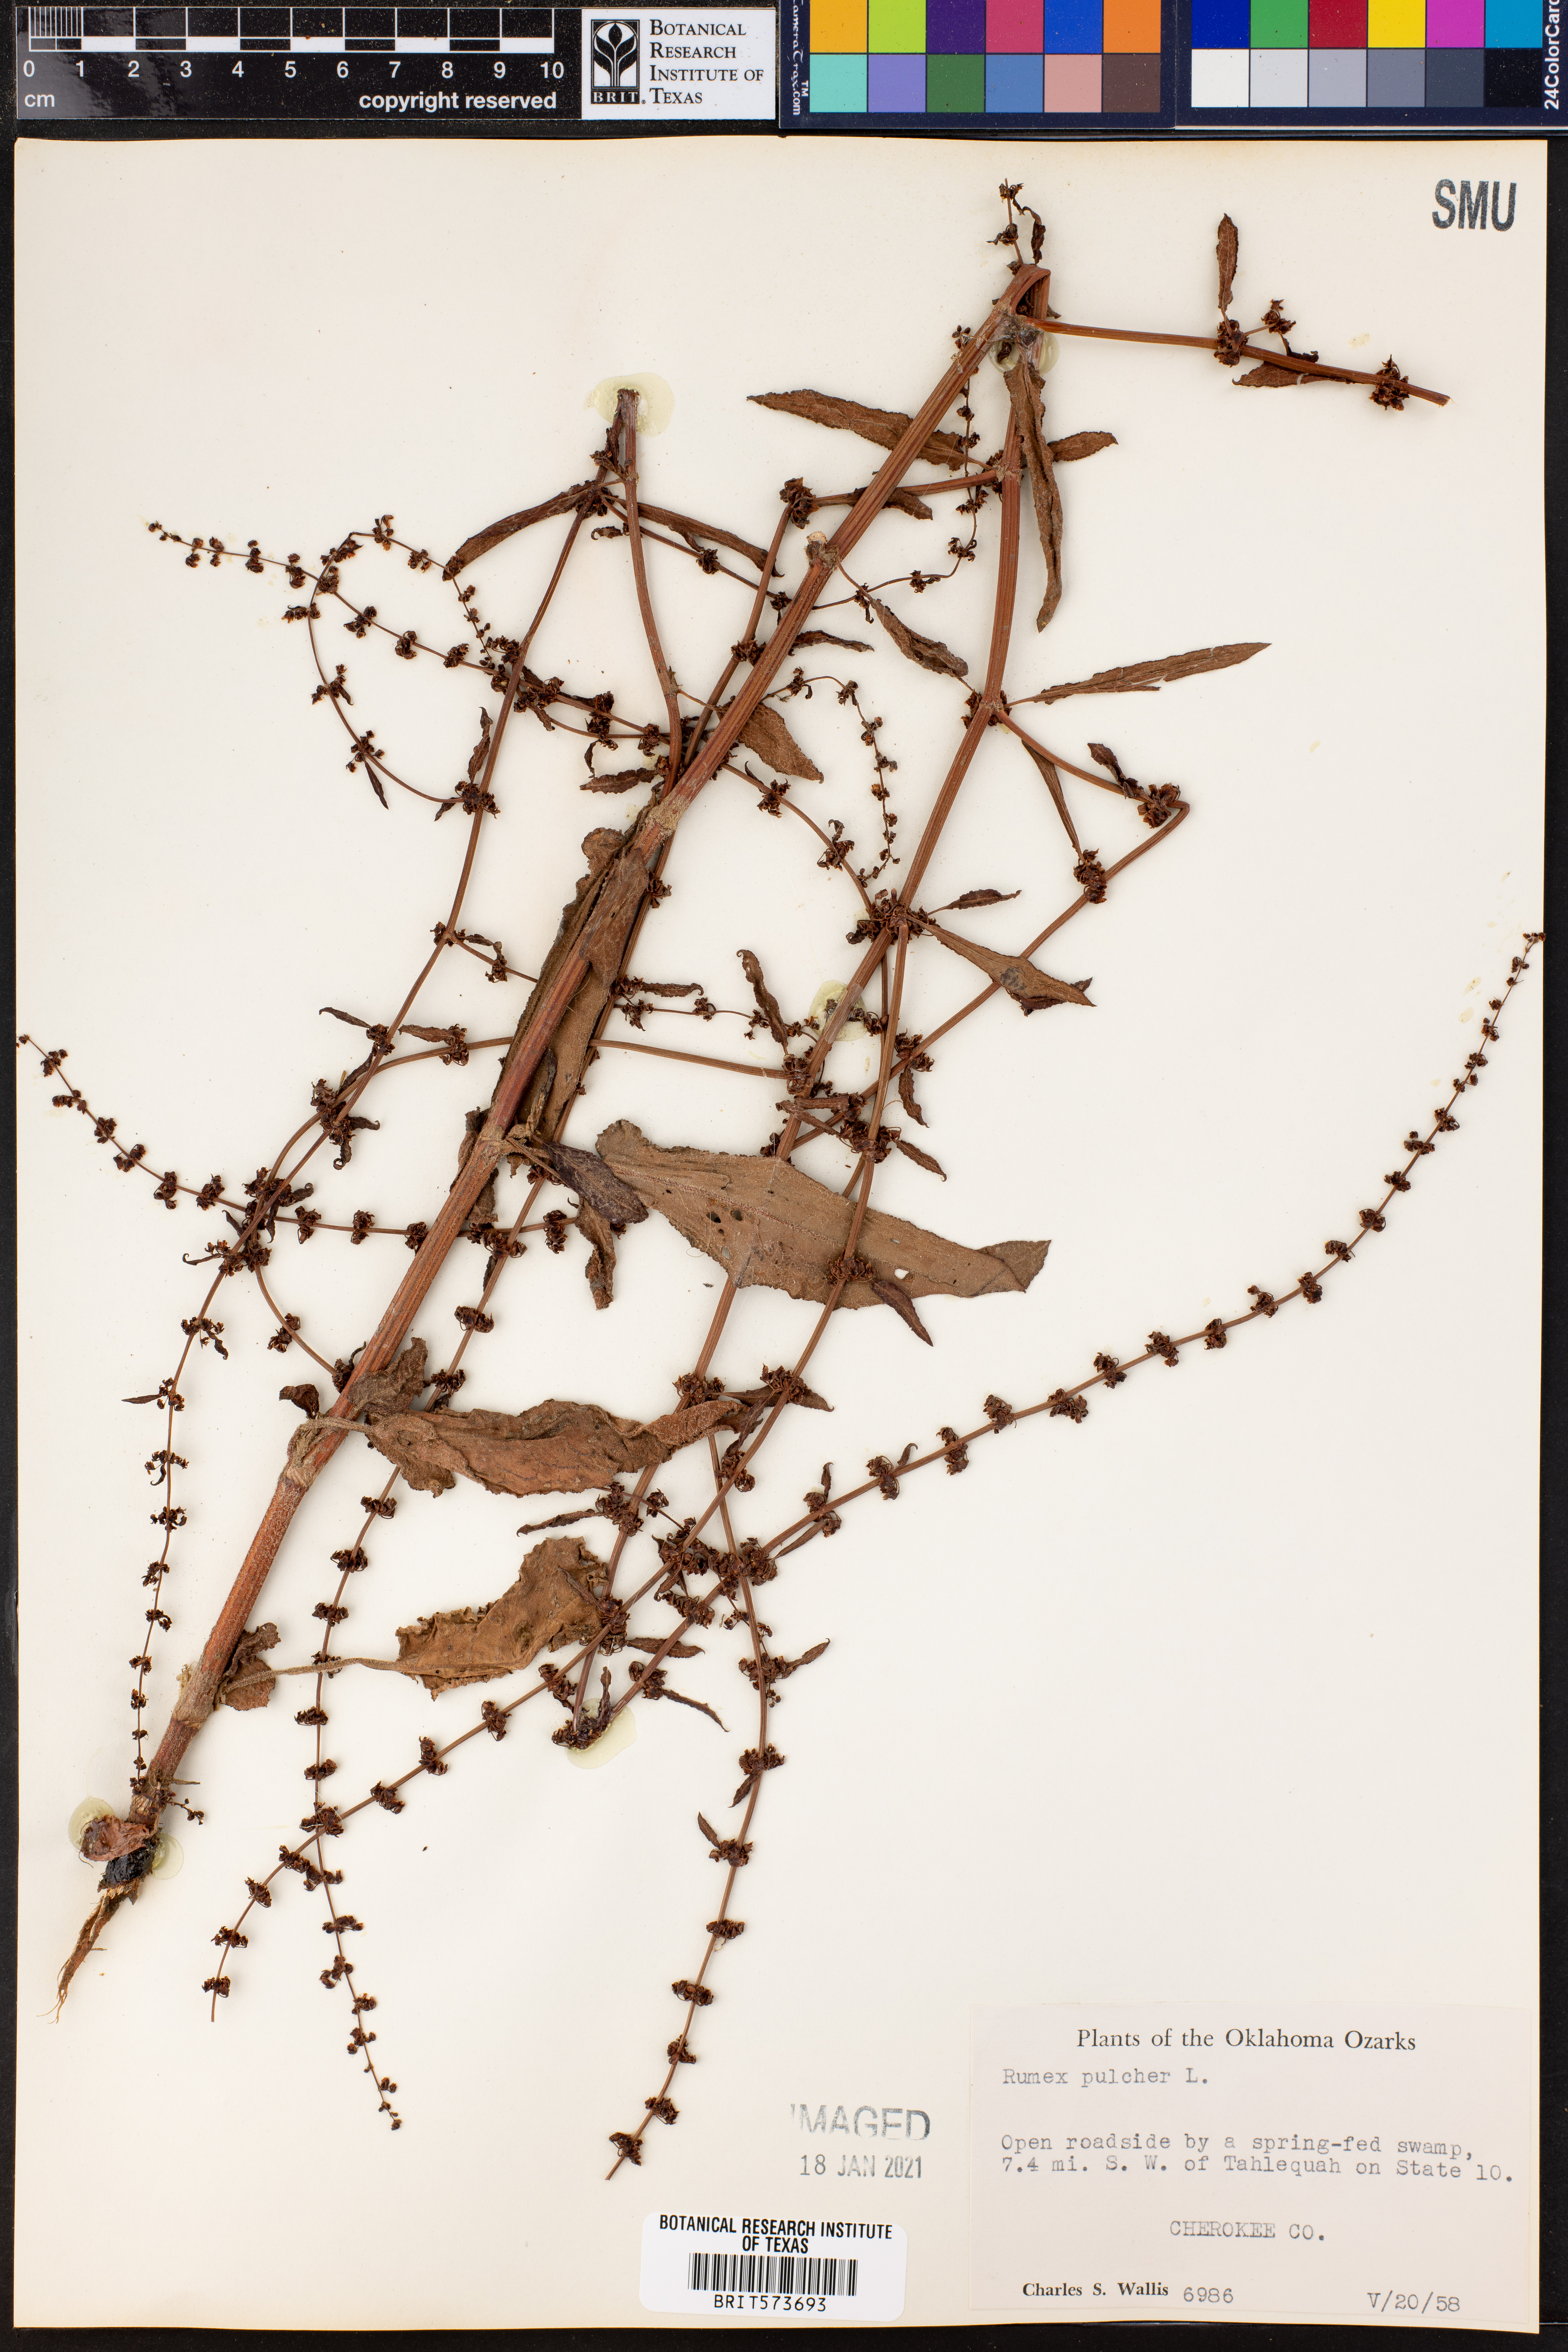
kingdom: Plantae
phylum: Tracheophyta
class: Magnoliopsida
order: Caryophyllales
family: Polygonaceae
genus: Rumex
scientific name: Rumex pulcher
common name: Fiddle dock
